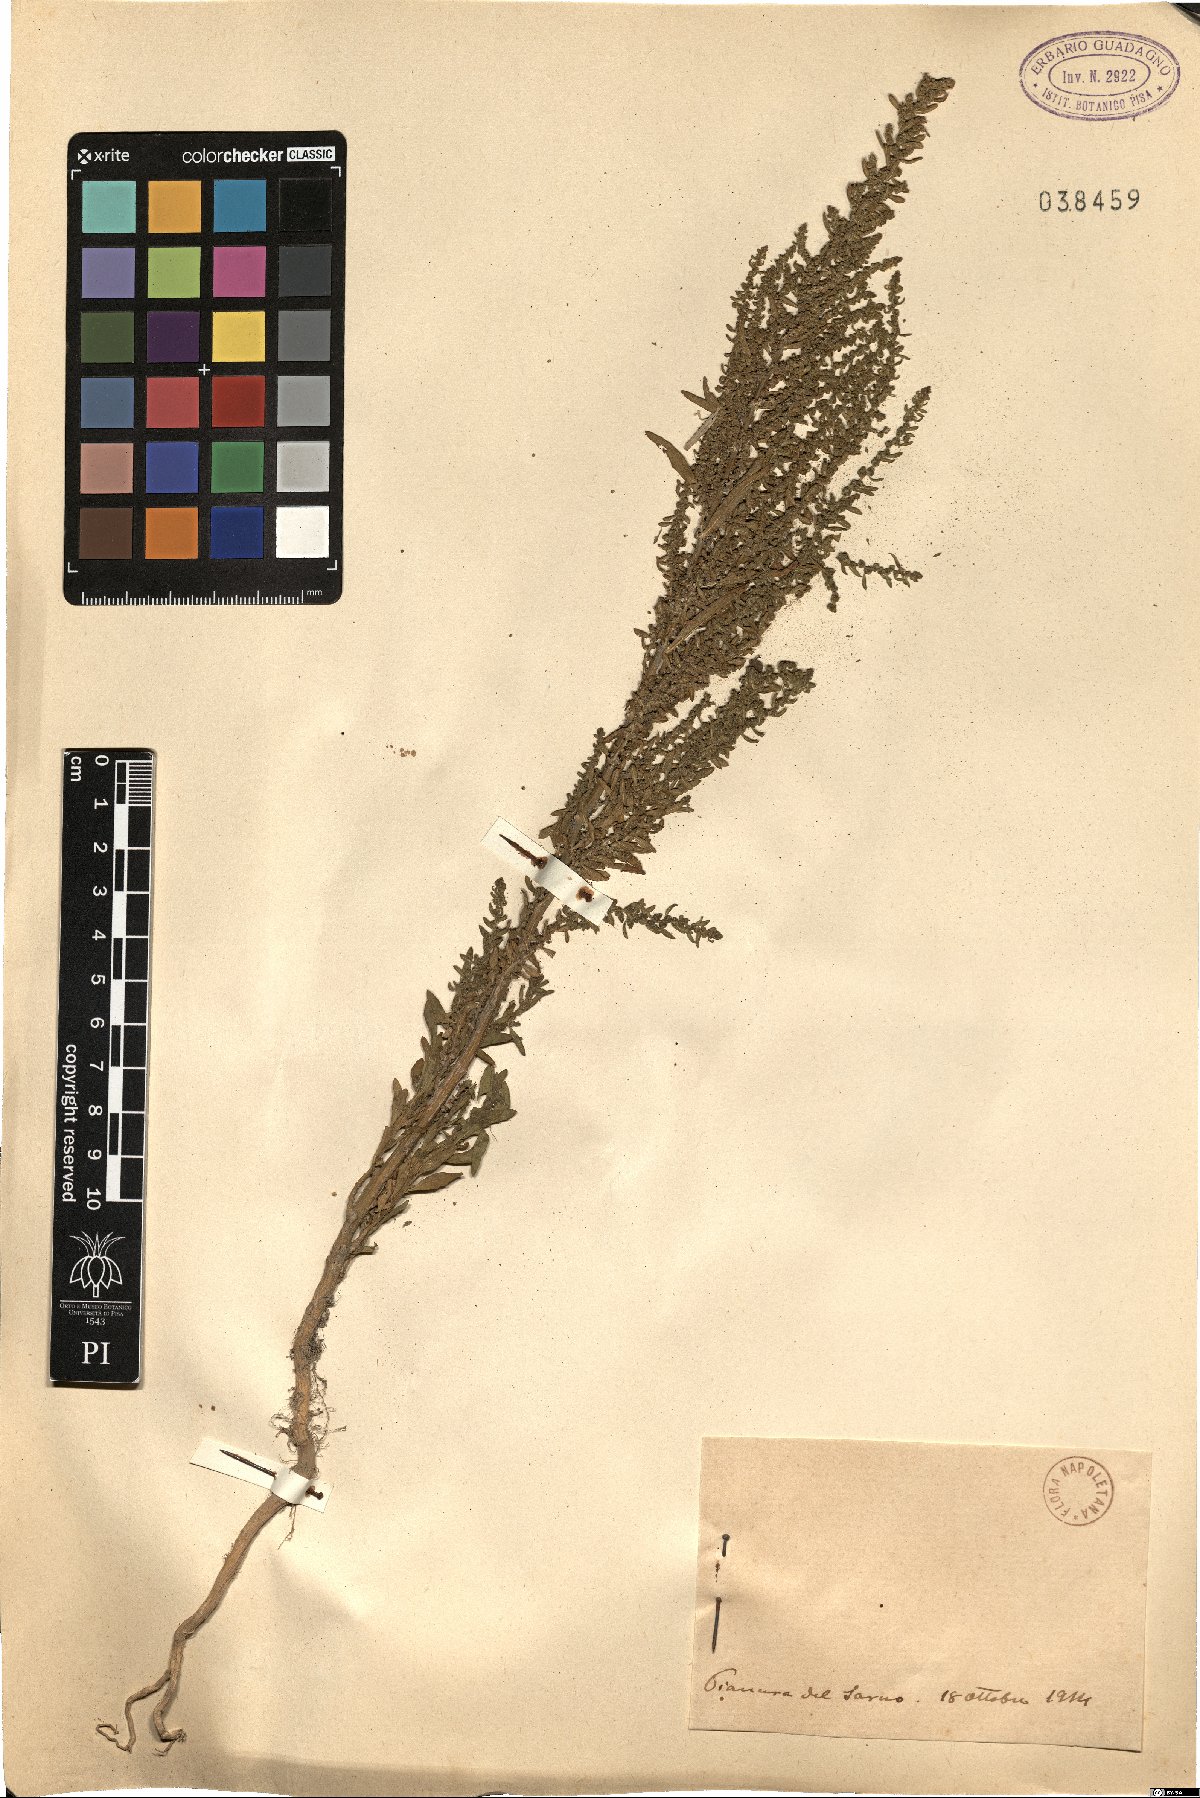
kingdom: Plantae
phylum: Tracheophyta
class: Magnoliopsida
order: Caryophyllales
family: Amaranthaceae
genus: Chenopodium
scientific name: Chenopodium
